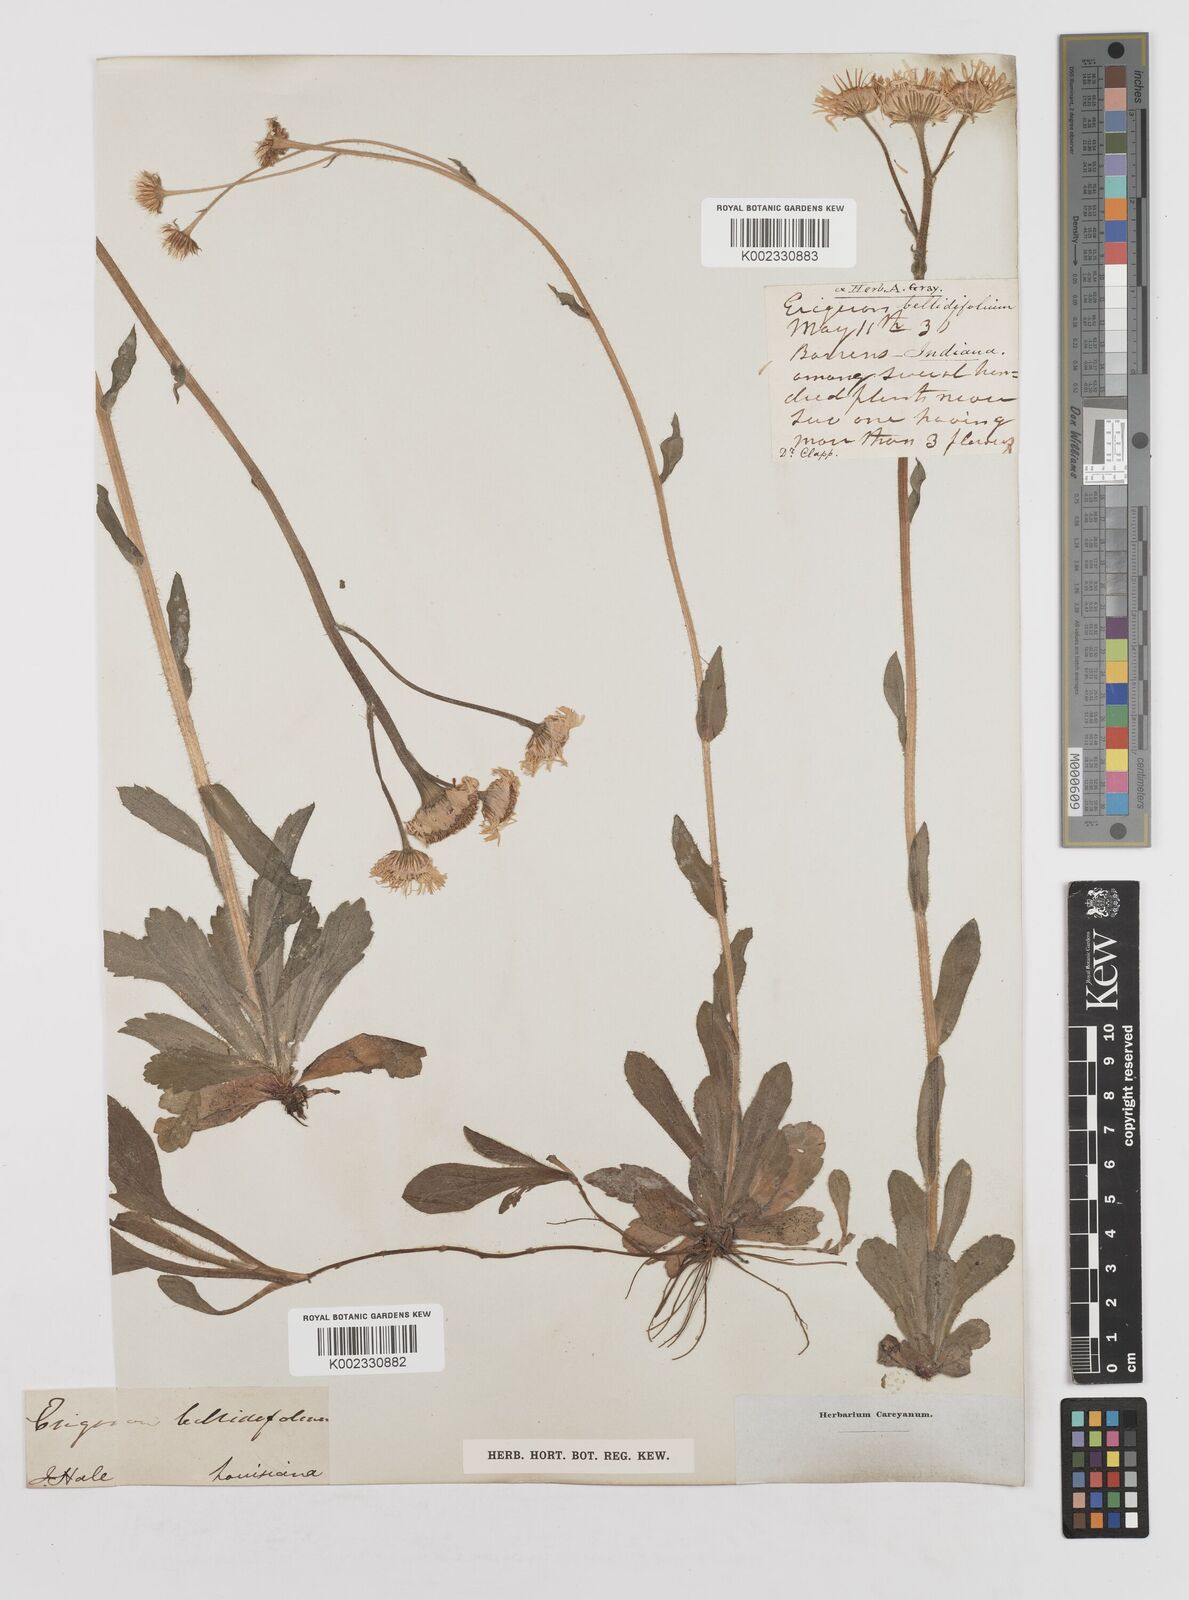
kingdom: Plantae
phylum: Tracheophyta
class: Magnoliopsida
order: Asterales
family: Asteraceae
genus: Erigeron
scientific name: Erigeron pulchellus
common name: Hairy fleabane
